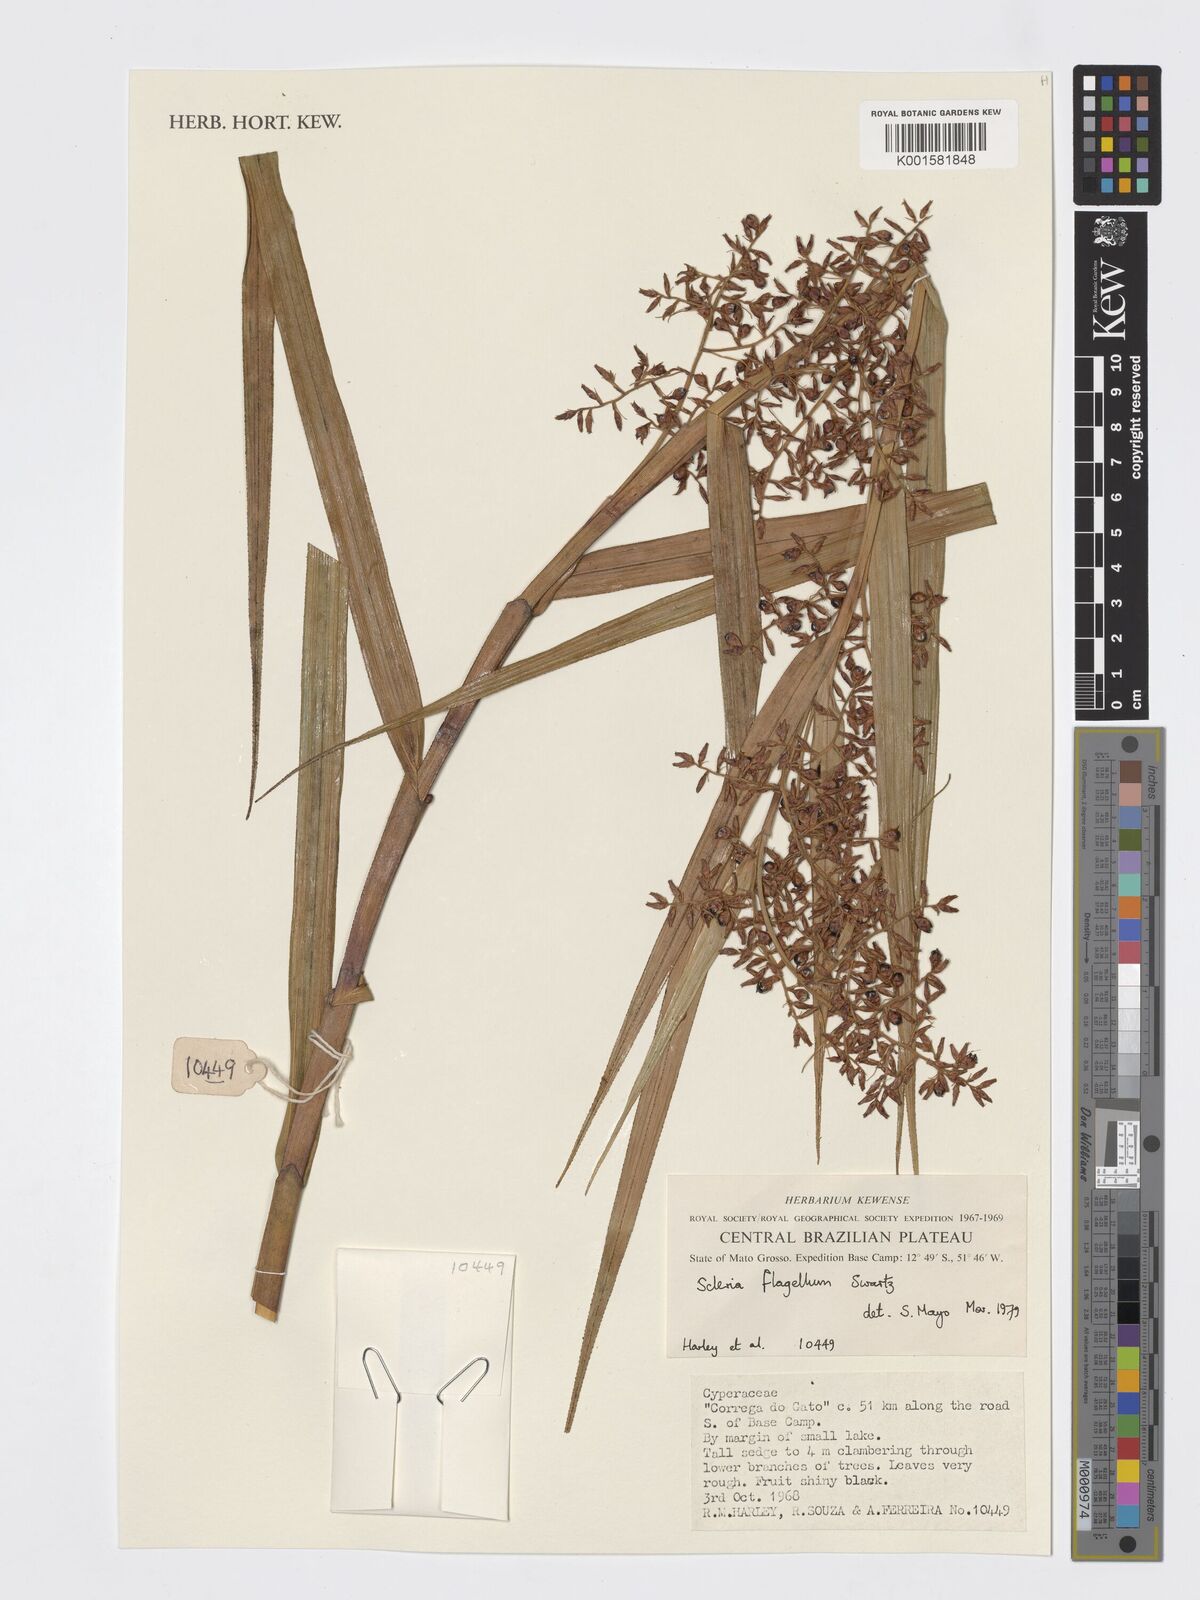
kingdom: Plantae
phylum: Tracheophyta
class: Liliopsida
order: Poales
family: Cyperaceae
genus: Scleria
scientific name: Scleria secans
